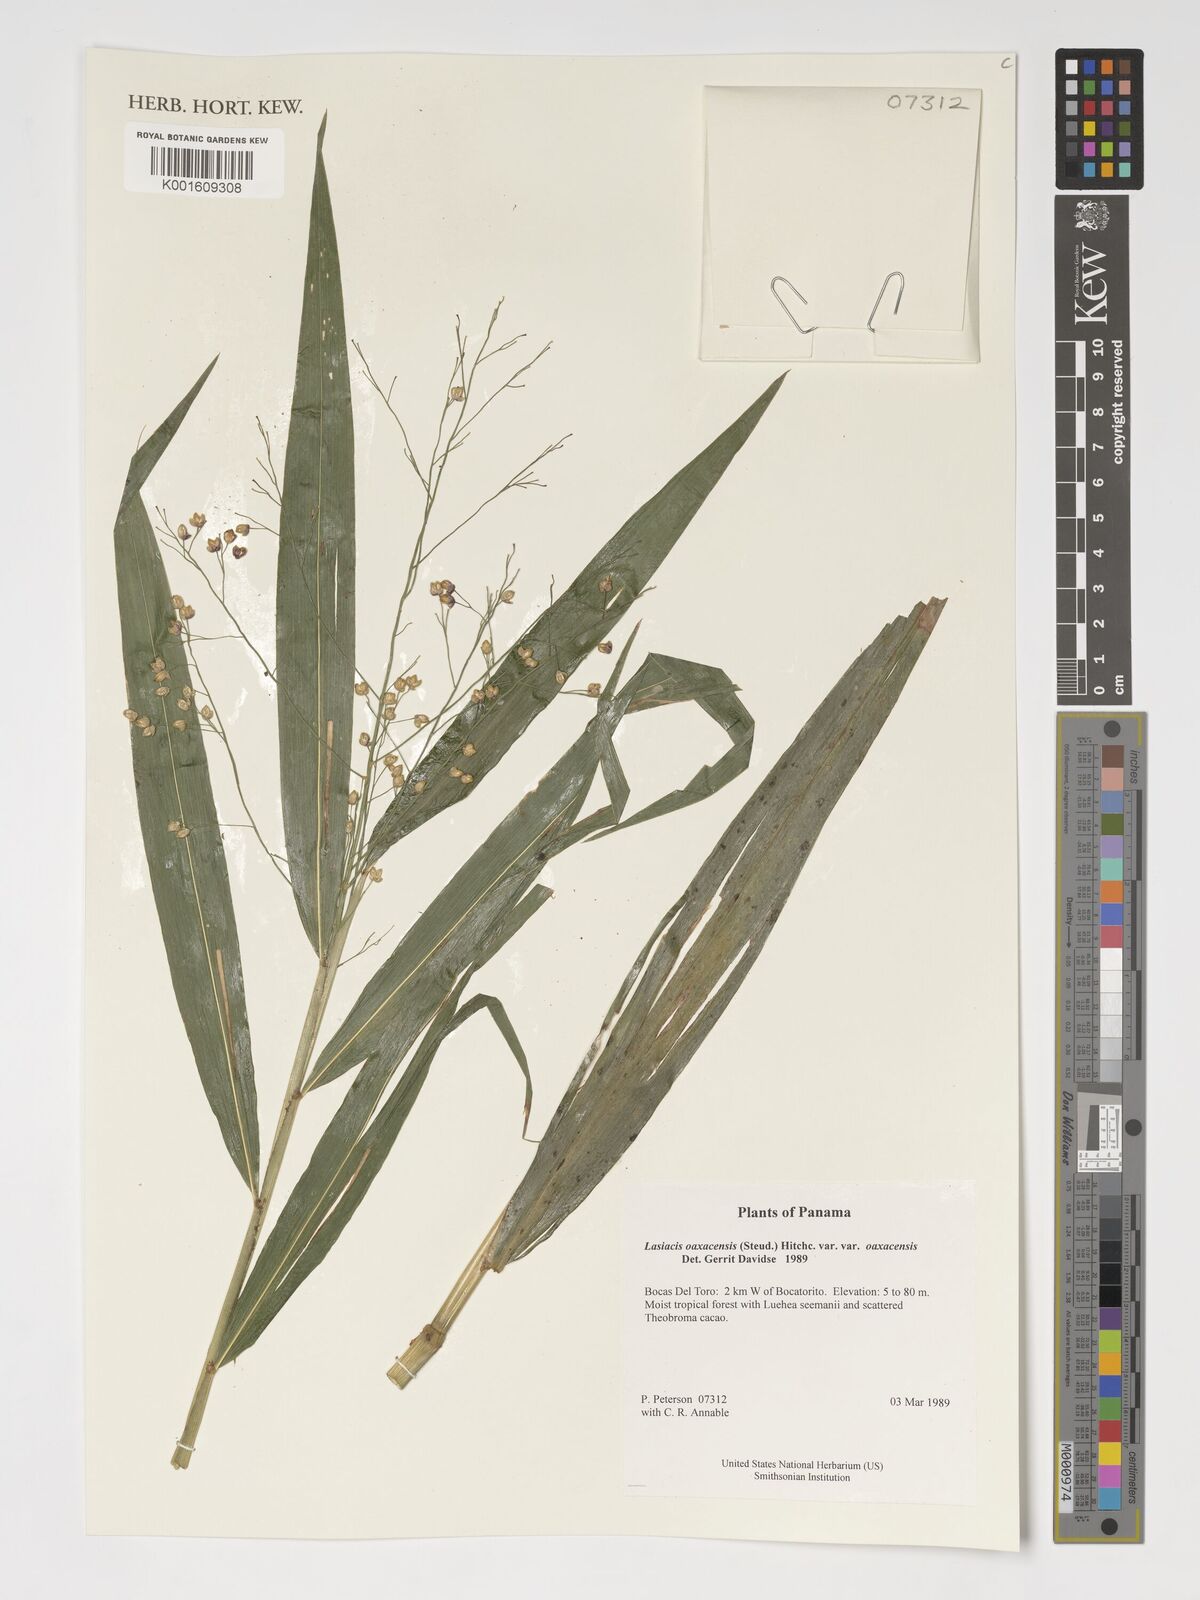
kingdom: Plantae
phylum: Tracheophyta
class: Liliopsida
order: Poales
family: Poaceae
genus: Lasiacis
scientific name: Lasiacis oaxacensis
